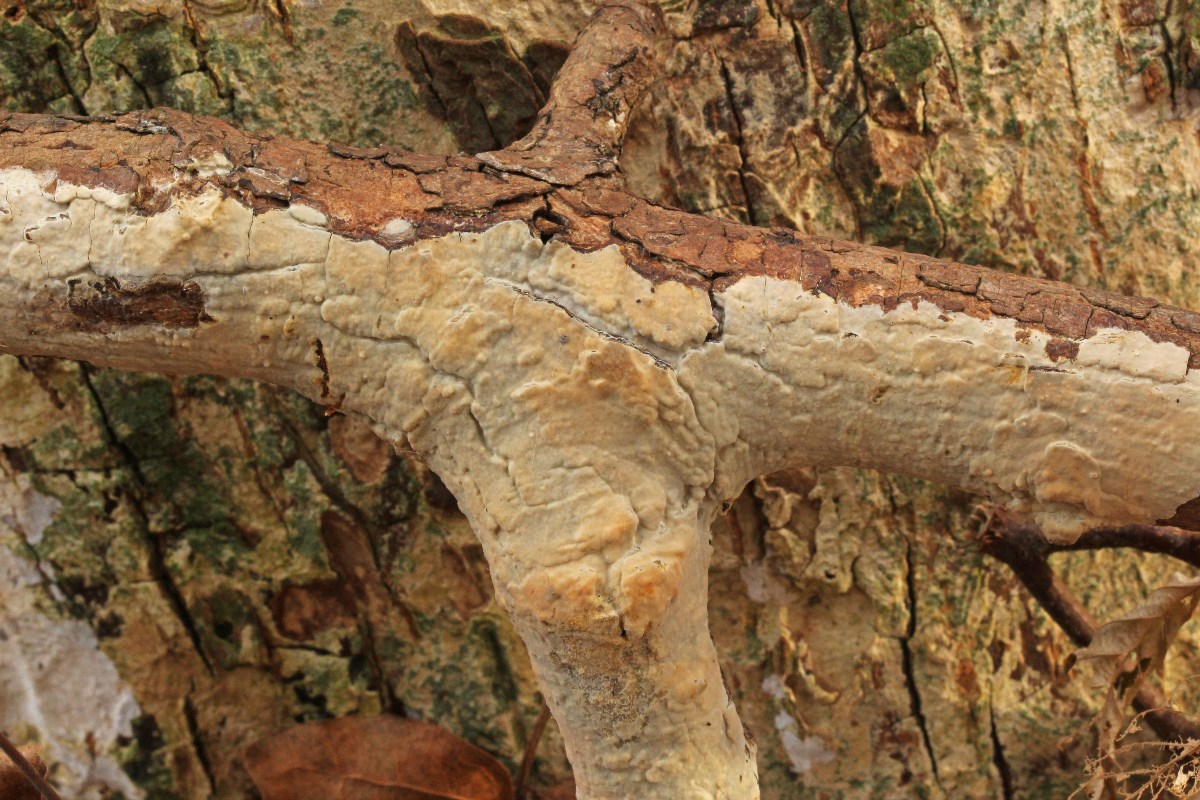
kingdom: Fungi
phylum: Basidiomycota
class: Agaricomycetes
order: Agaricales
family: Radulomycetaceae
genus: Radulomyces
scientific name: Radulomyces confluens
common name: glat naftalinskind
